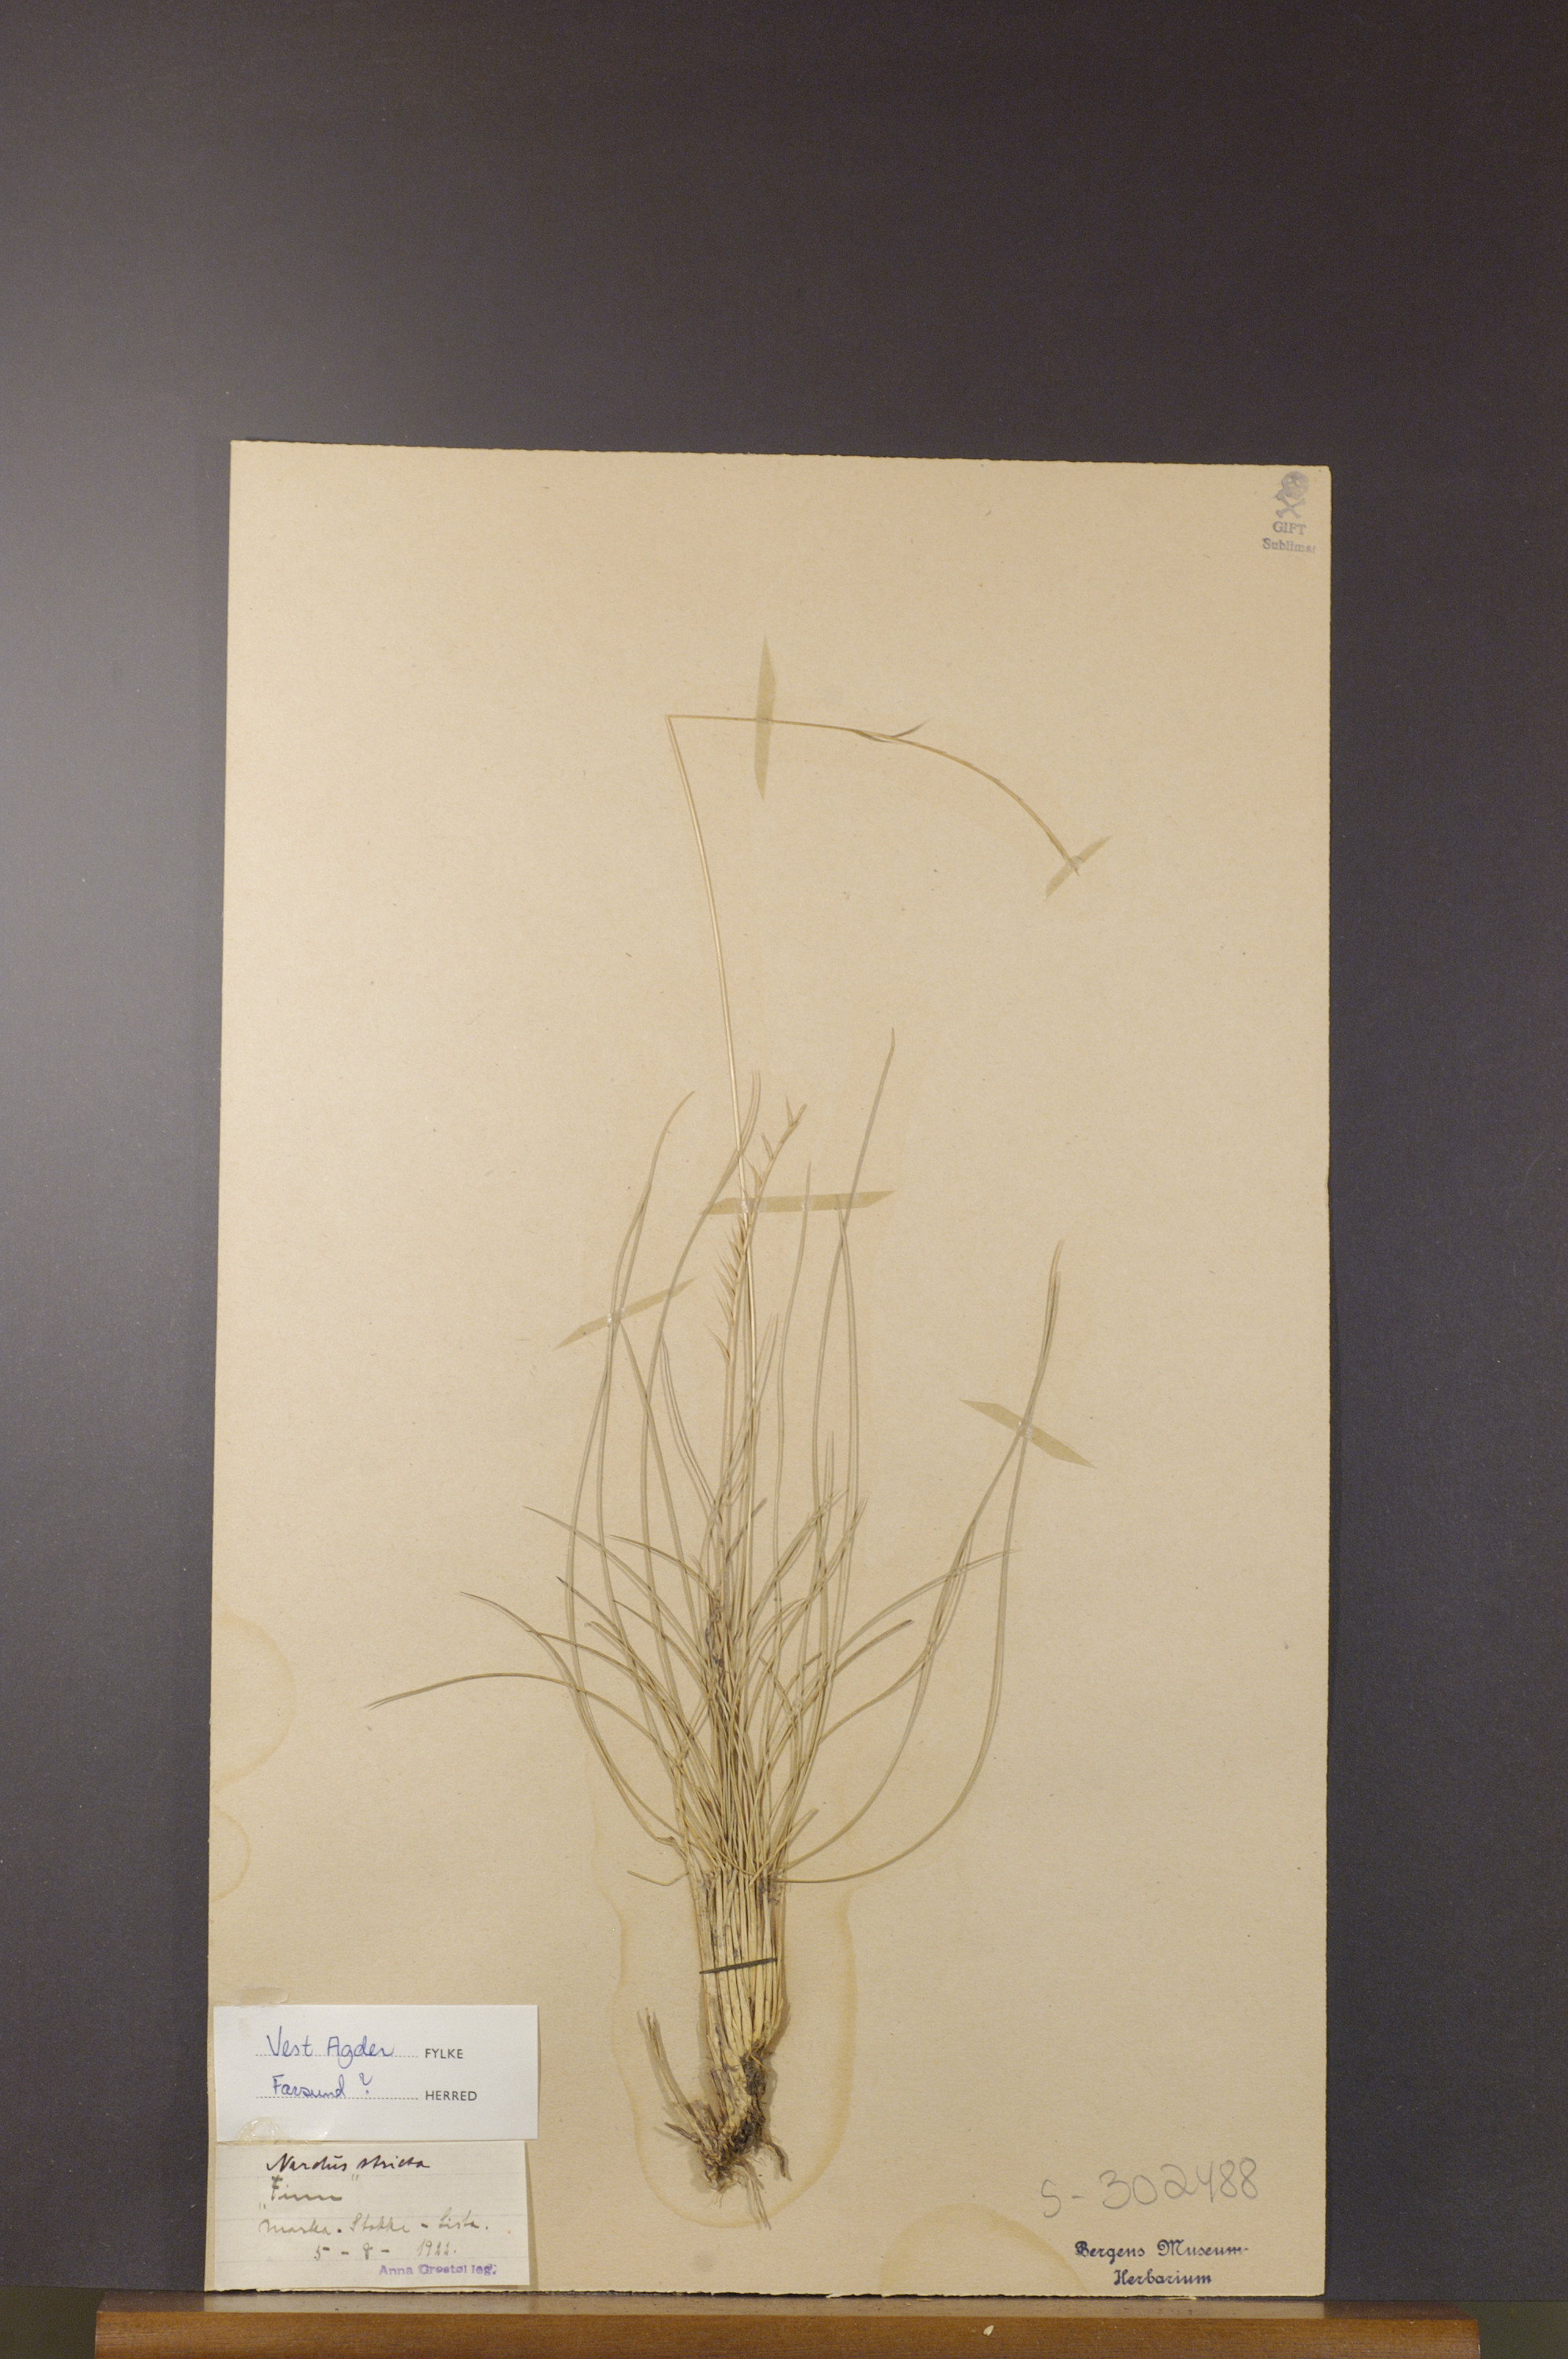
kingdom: Plantae
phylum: Tracheophyta
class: Liliopsida
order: Poales
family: Poaceae
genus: Nardus
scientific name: Nardus stricta
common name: Mat-grass
